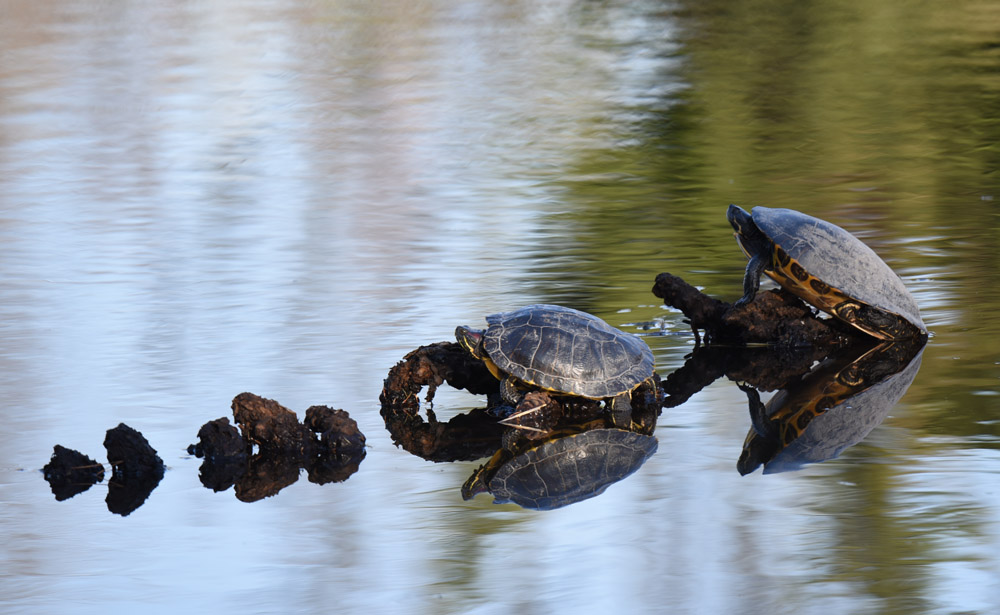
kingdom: Animalia
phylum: Chordata
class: Testudines
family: Emydidae
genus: Trachemys
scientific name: Trachemys scripta
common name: Slider
